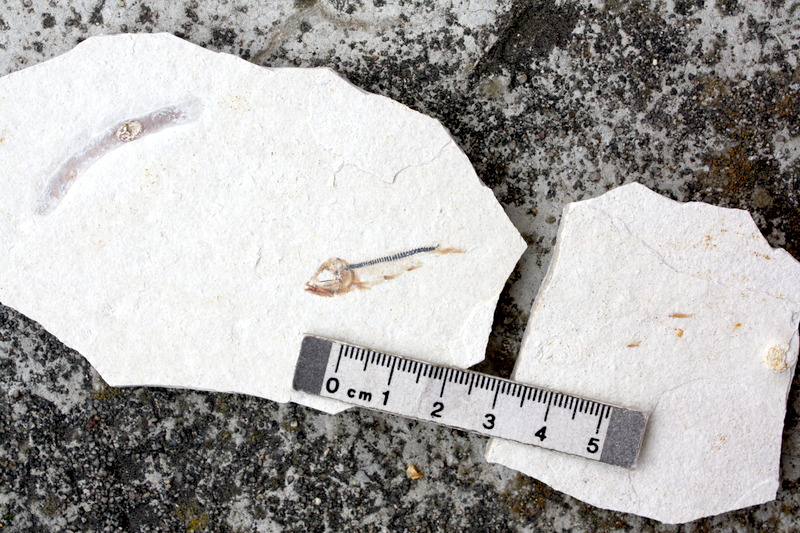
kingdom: Animalia
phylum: Chordata
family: Ascalaboidae
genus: Ebertichthys
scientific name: Ebertichthys ettlingensis
